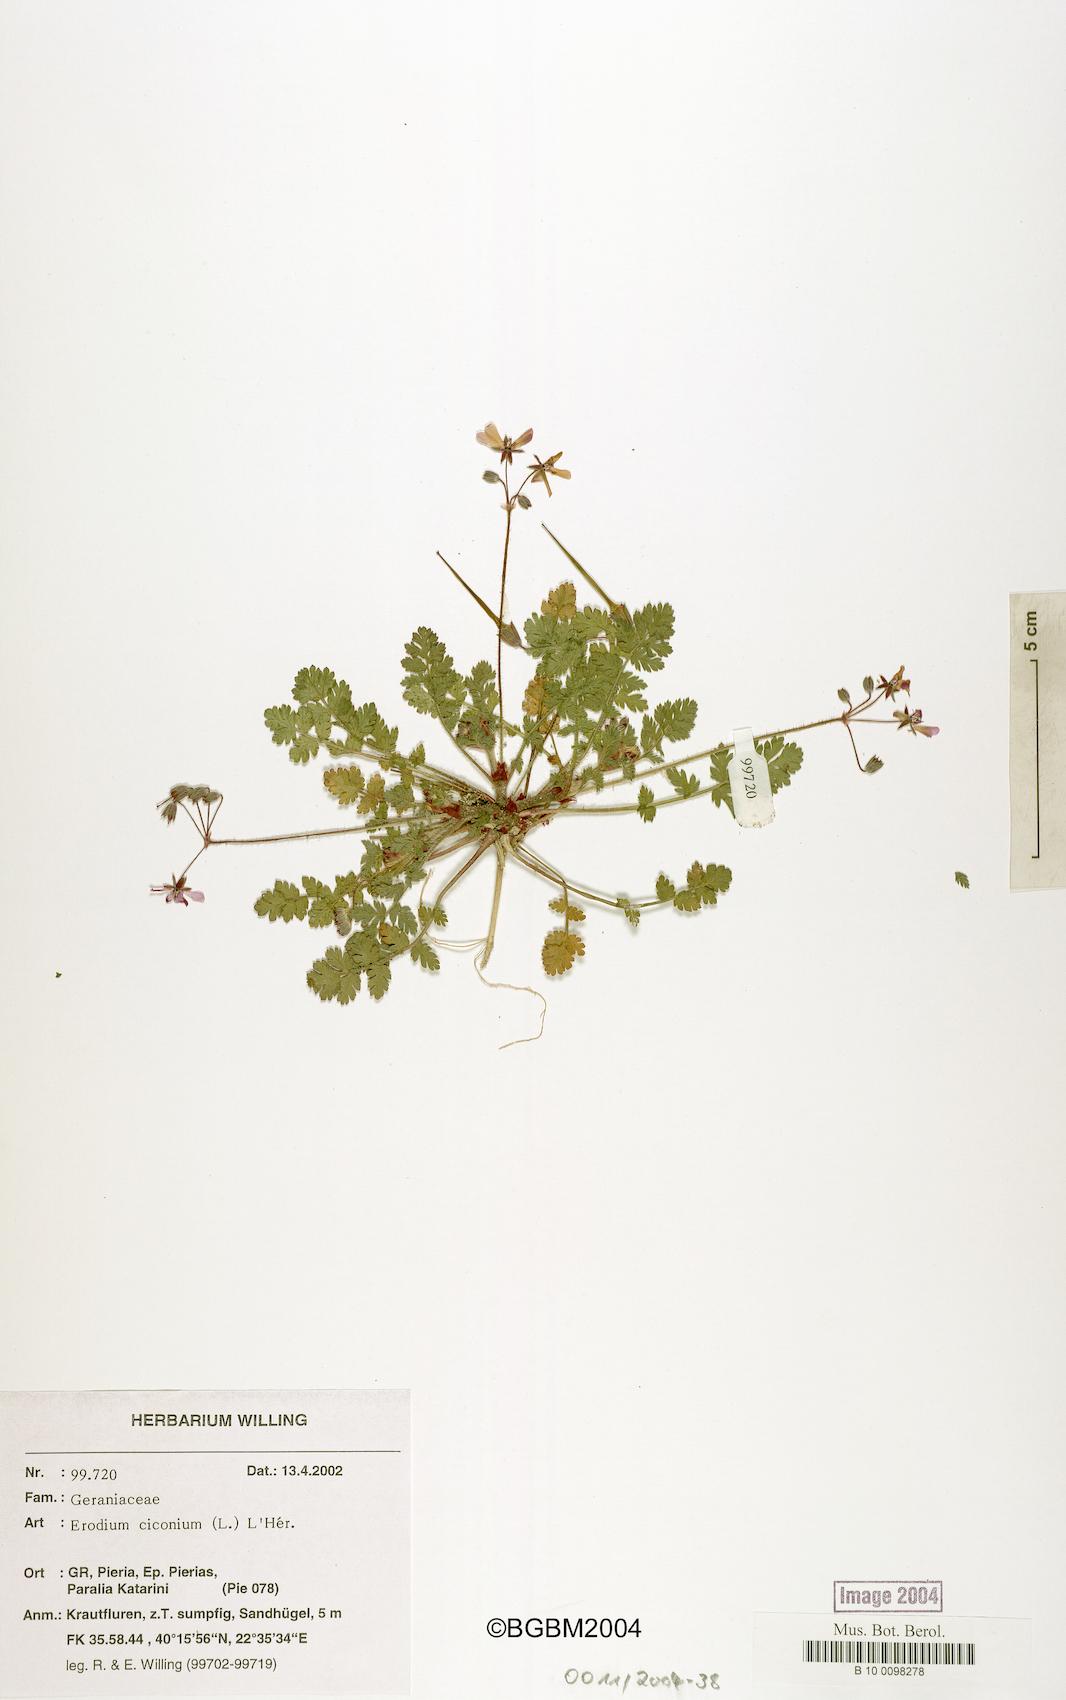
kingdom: Plantae
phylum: Tracheophyta
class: Magnoliopsida
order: Geraniales
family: Geraniaceae
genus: Erodium
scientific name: Erodium cicutarium
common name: Common stork's-bill
